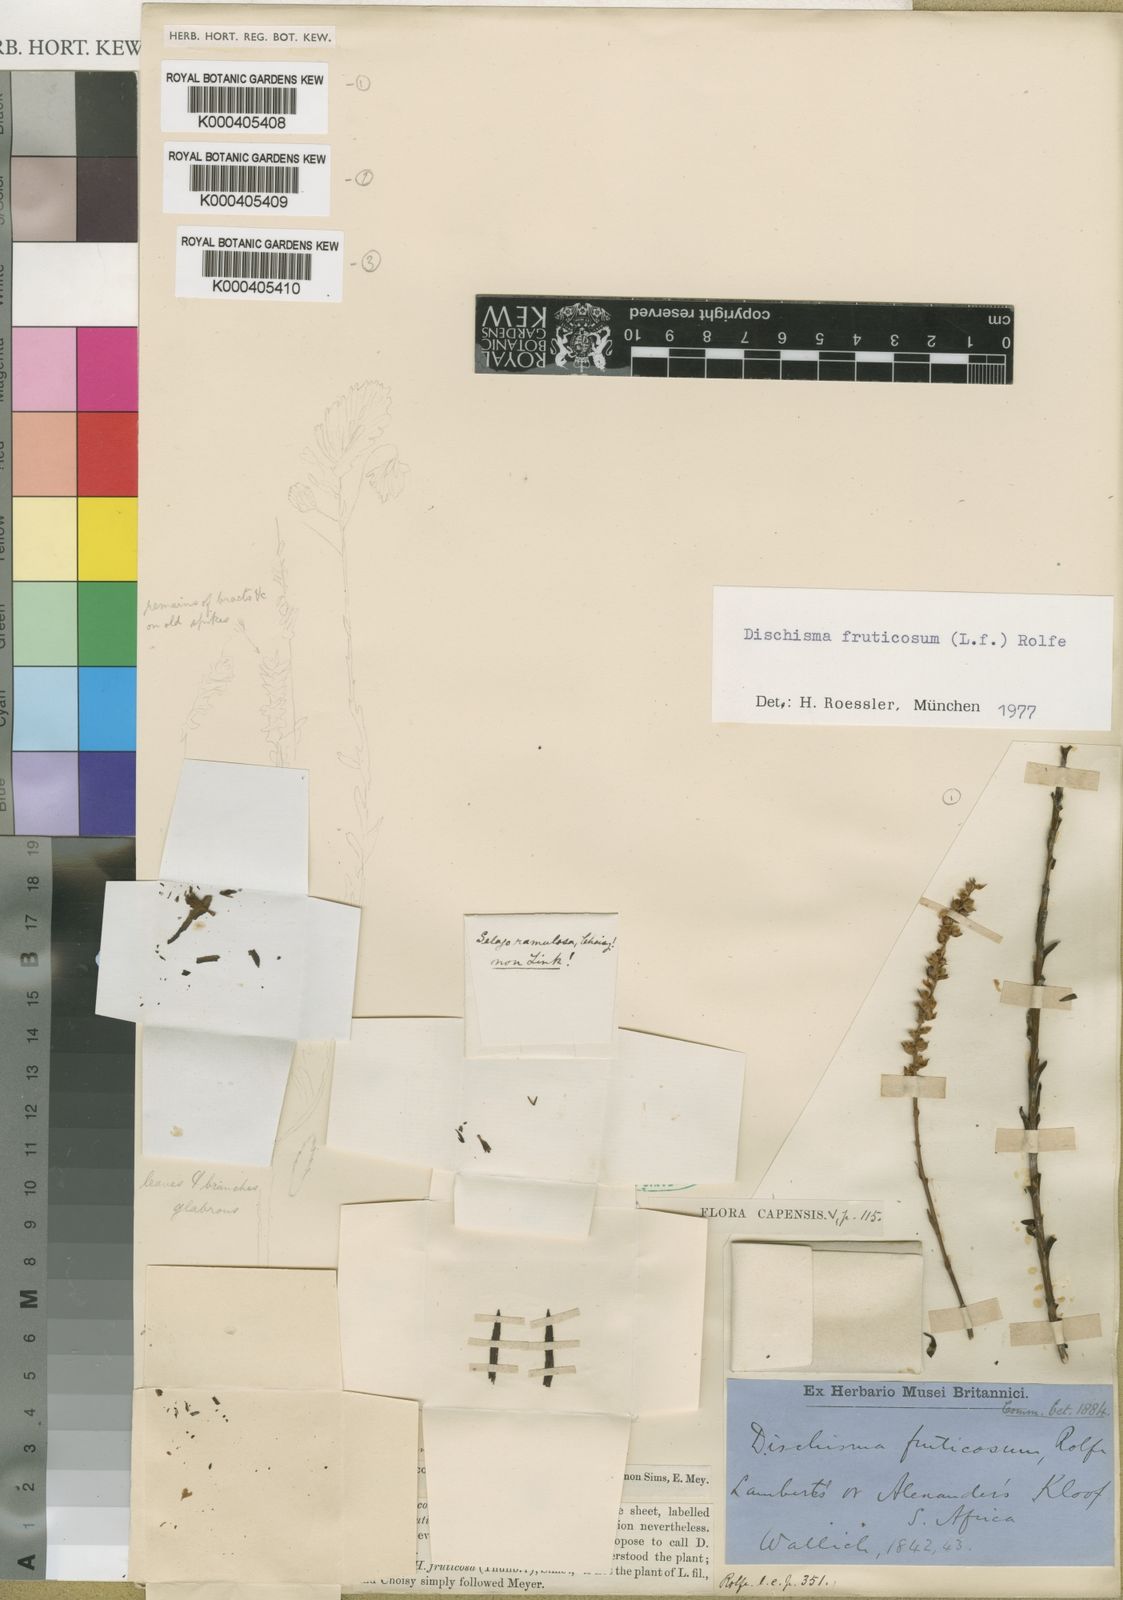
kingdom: Plantae
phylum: Tracheophyta
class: Magnoliopsida
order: Lamiales
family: Scrophulariaceae
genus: Dischisma
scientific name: Dischisma fruticosum
